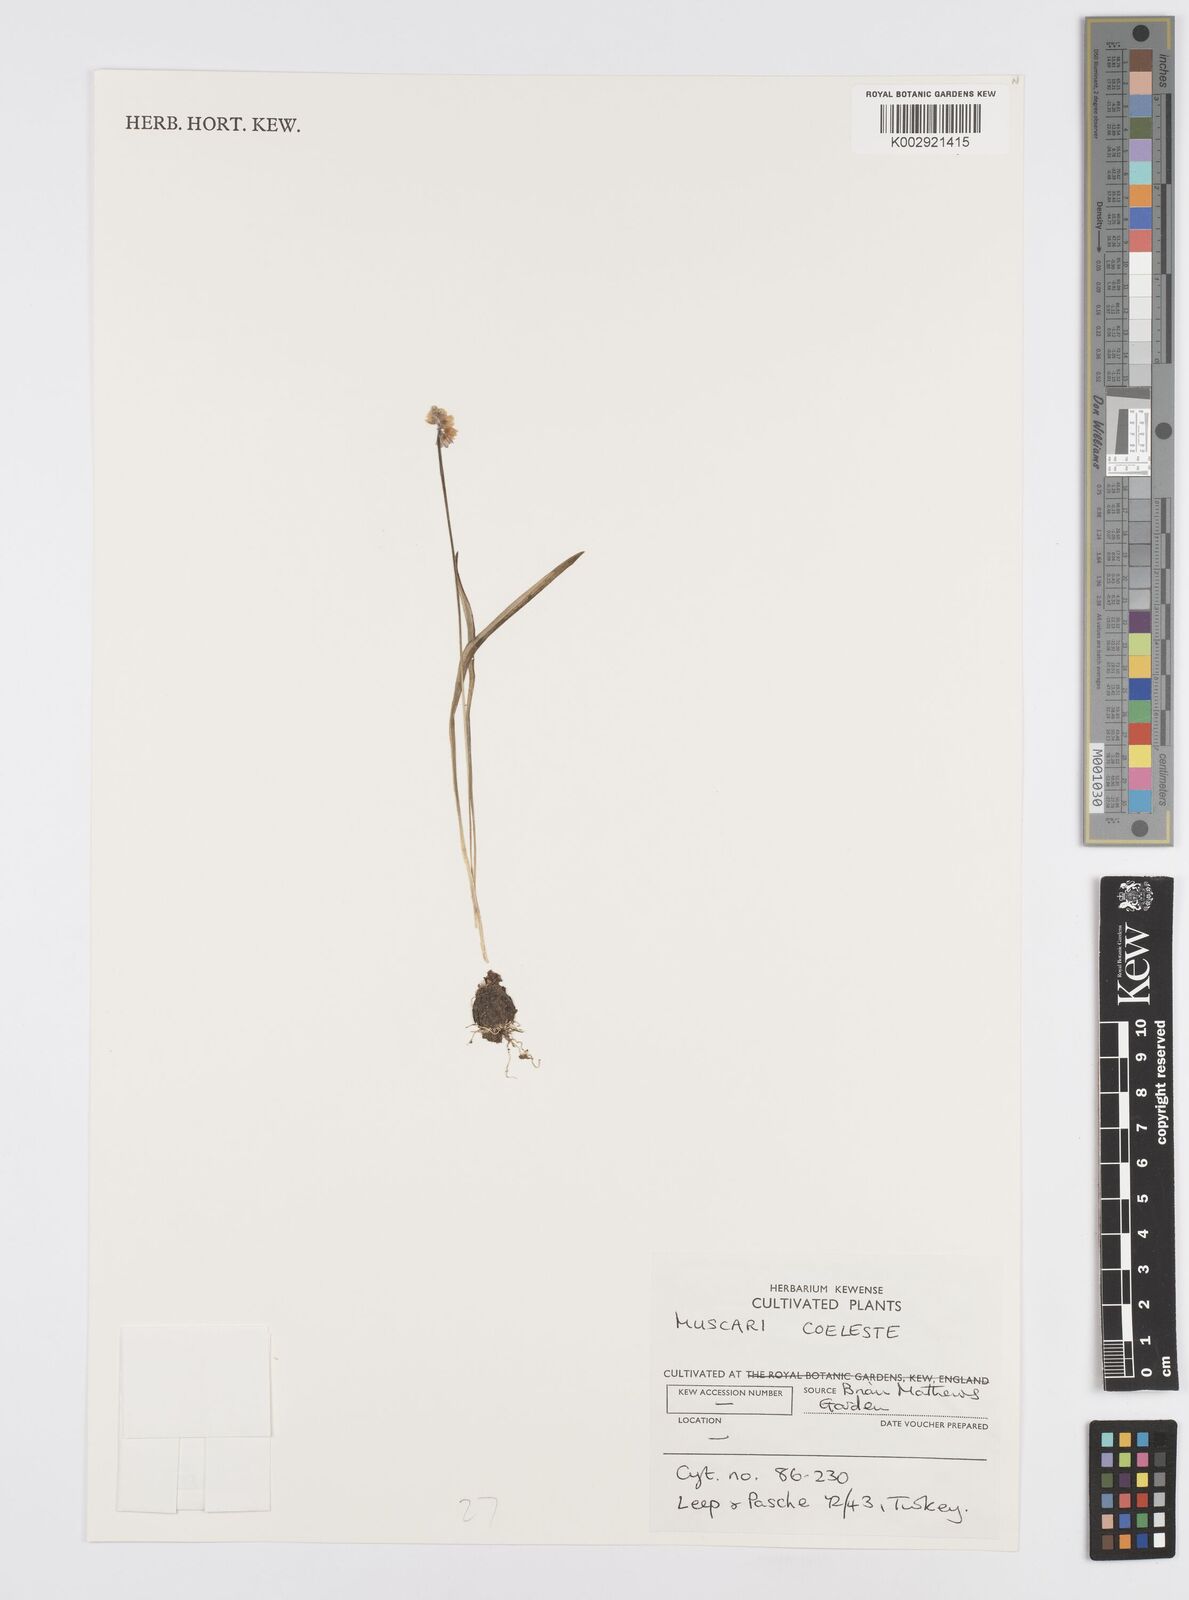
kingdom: Plantae
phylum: Tracheophyta
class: Liliopsida
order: Asparagales
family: Asparagaceae
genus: Muscari
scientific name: Muscari
